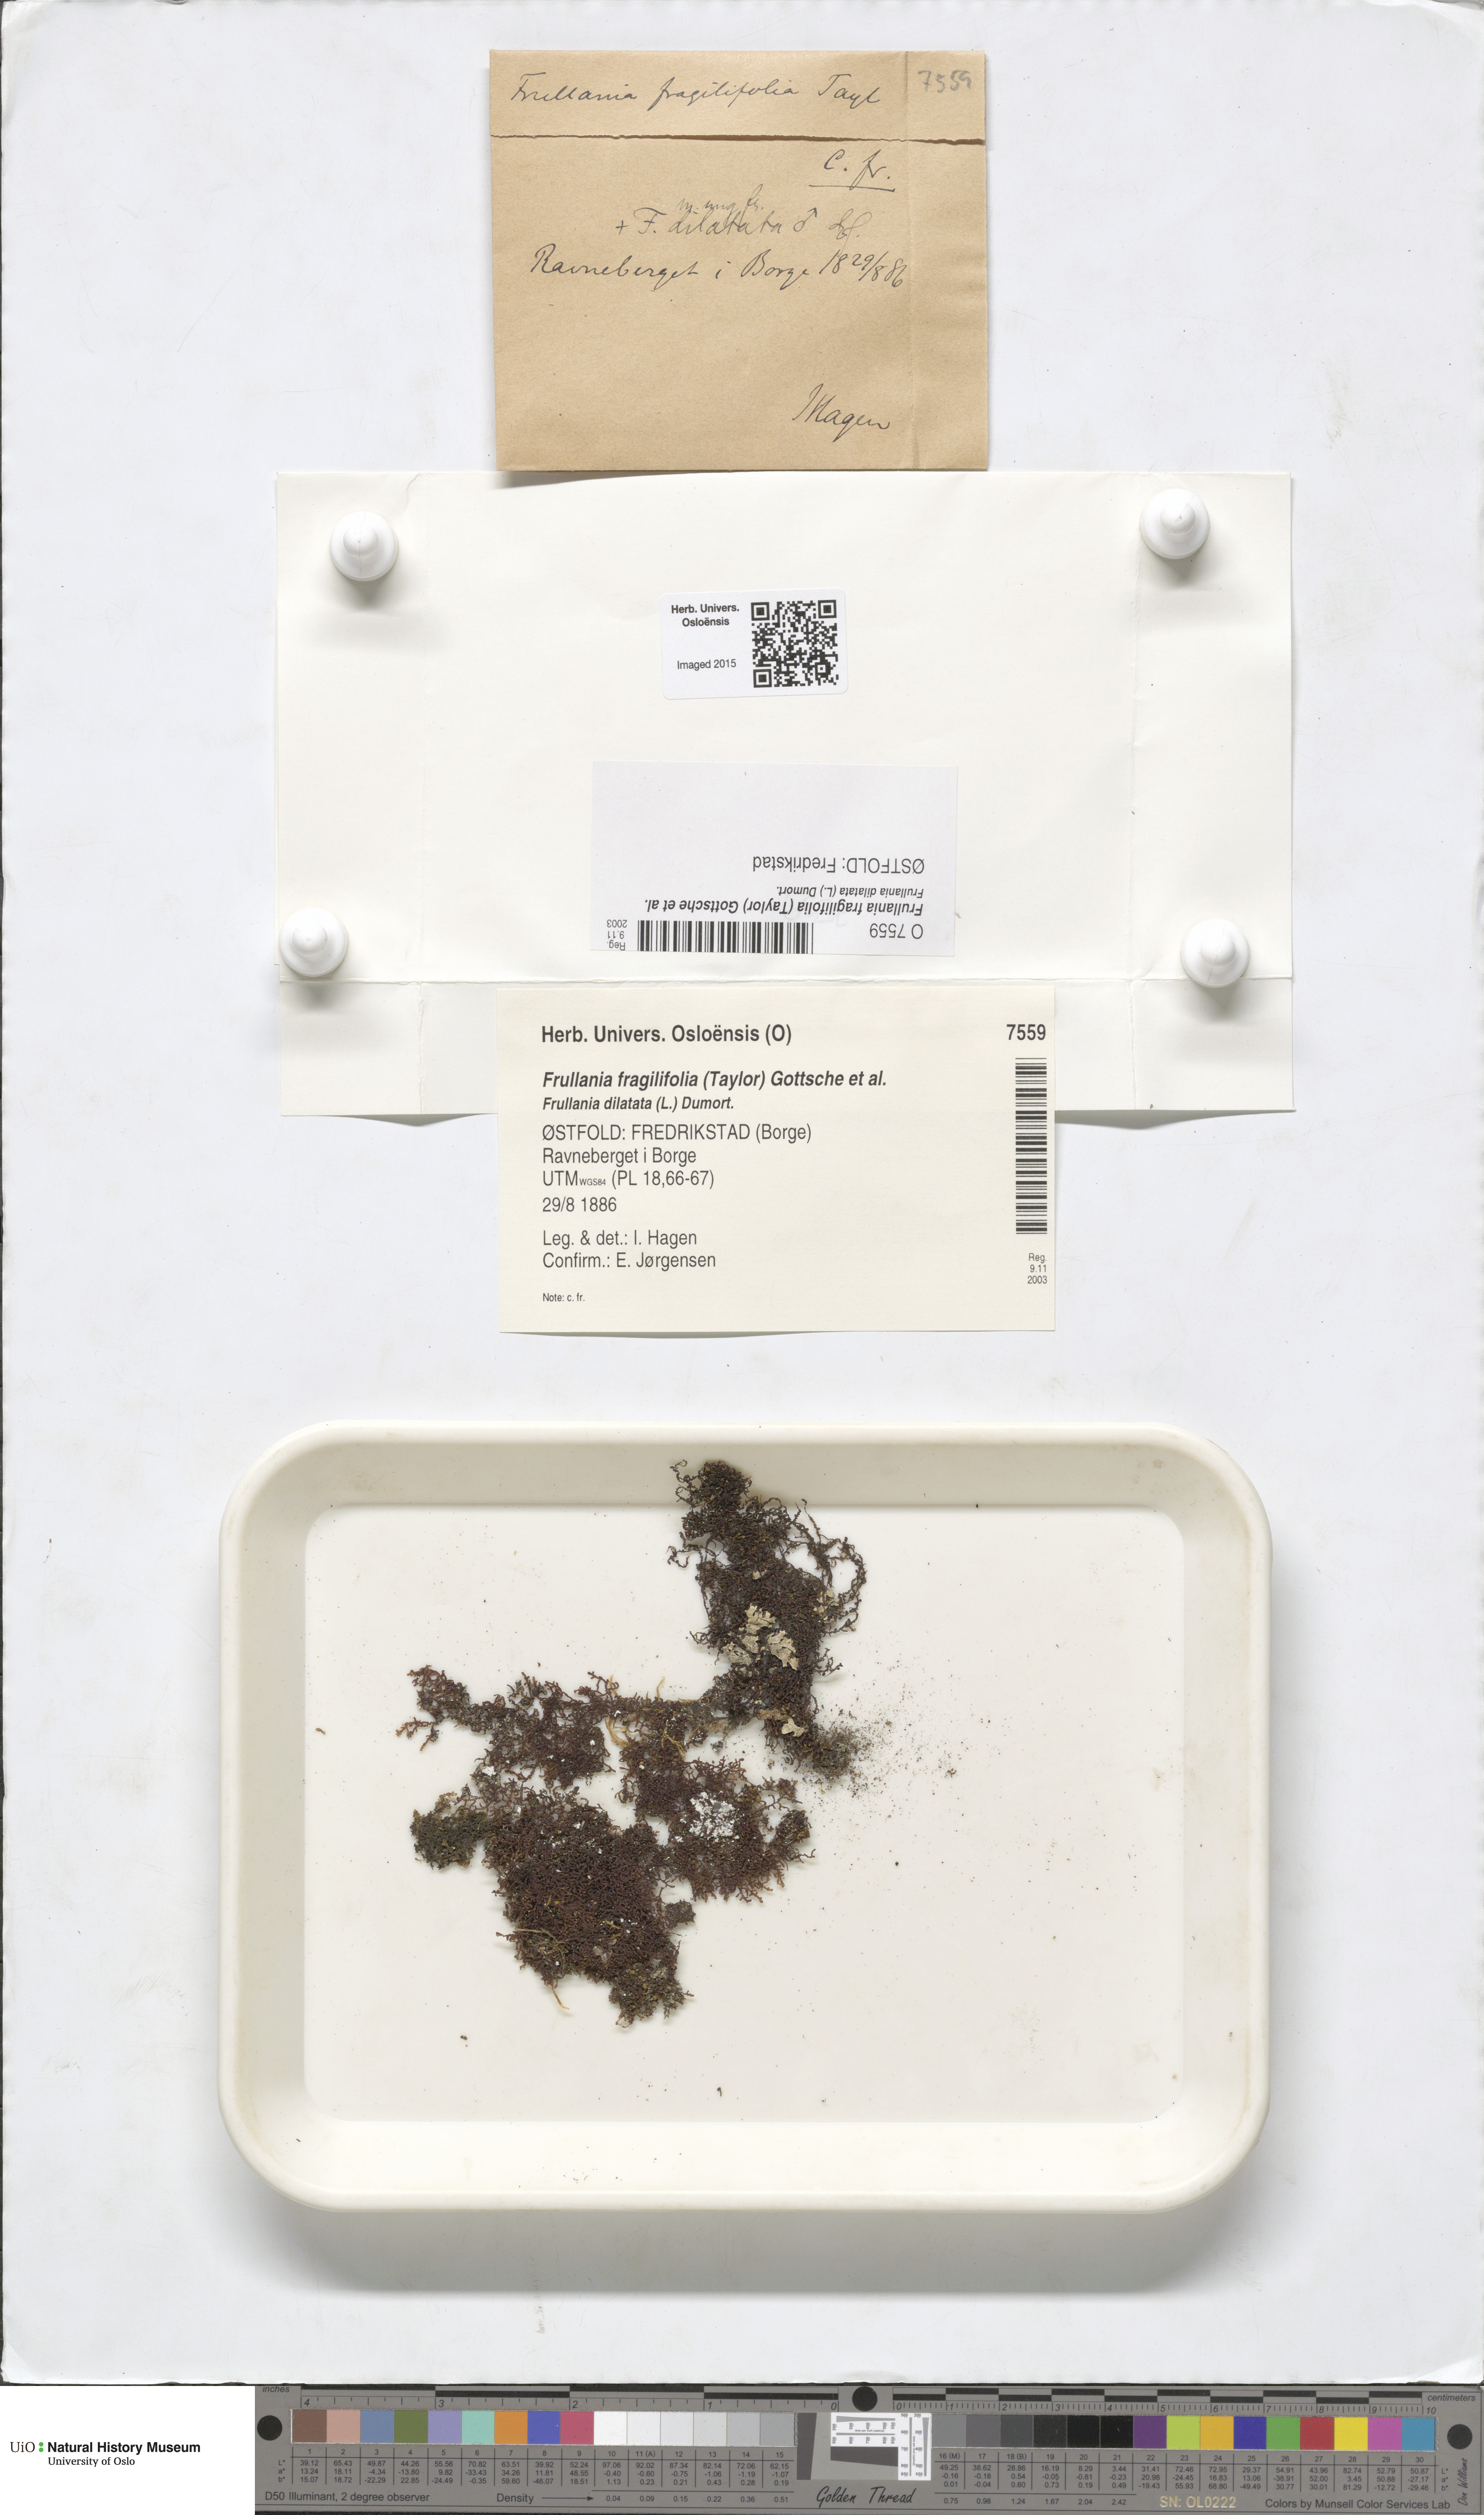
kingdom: Plantae
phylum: Marchantiophyta
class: Jungermanniopsida
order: Porellales
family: Frullaniaceae
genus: Frullania
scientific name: Frullania fragilifolia
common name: Spotty scalewort
